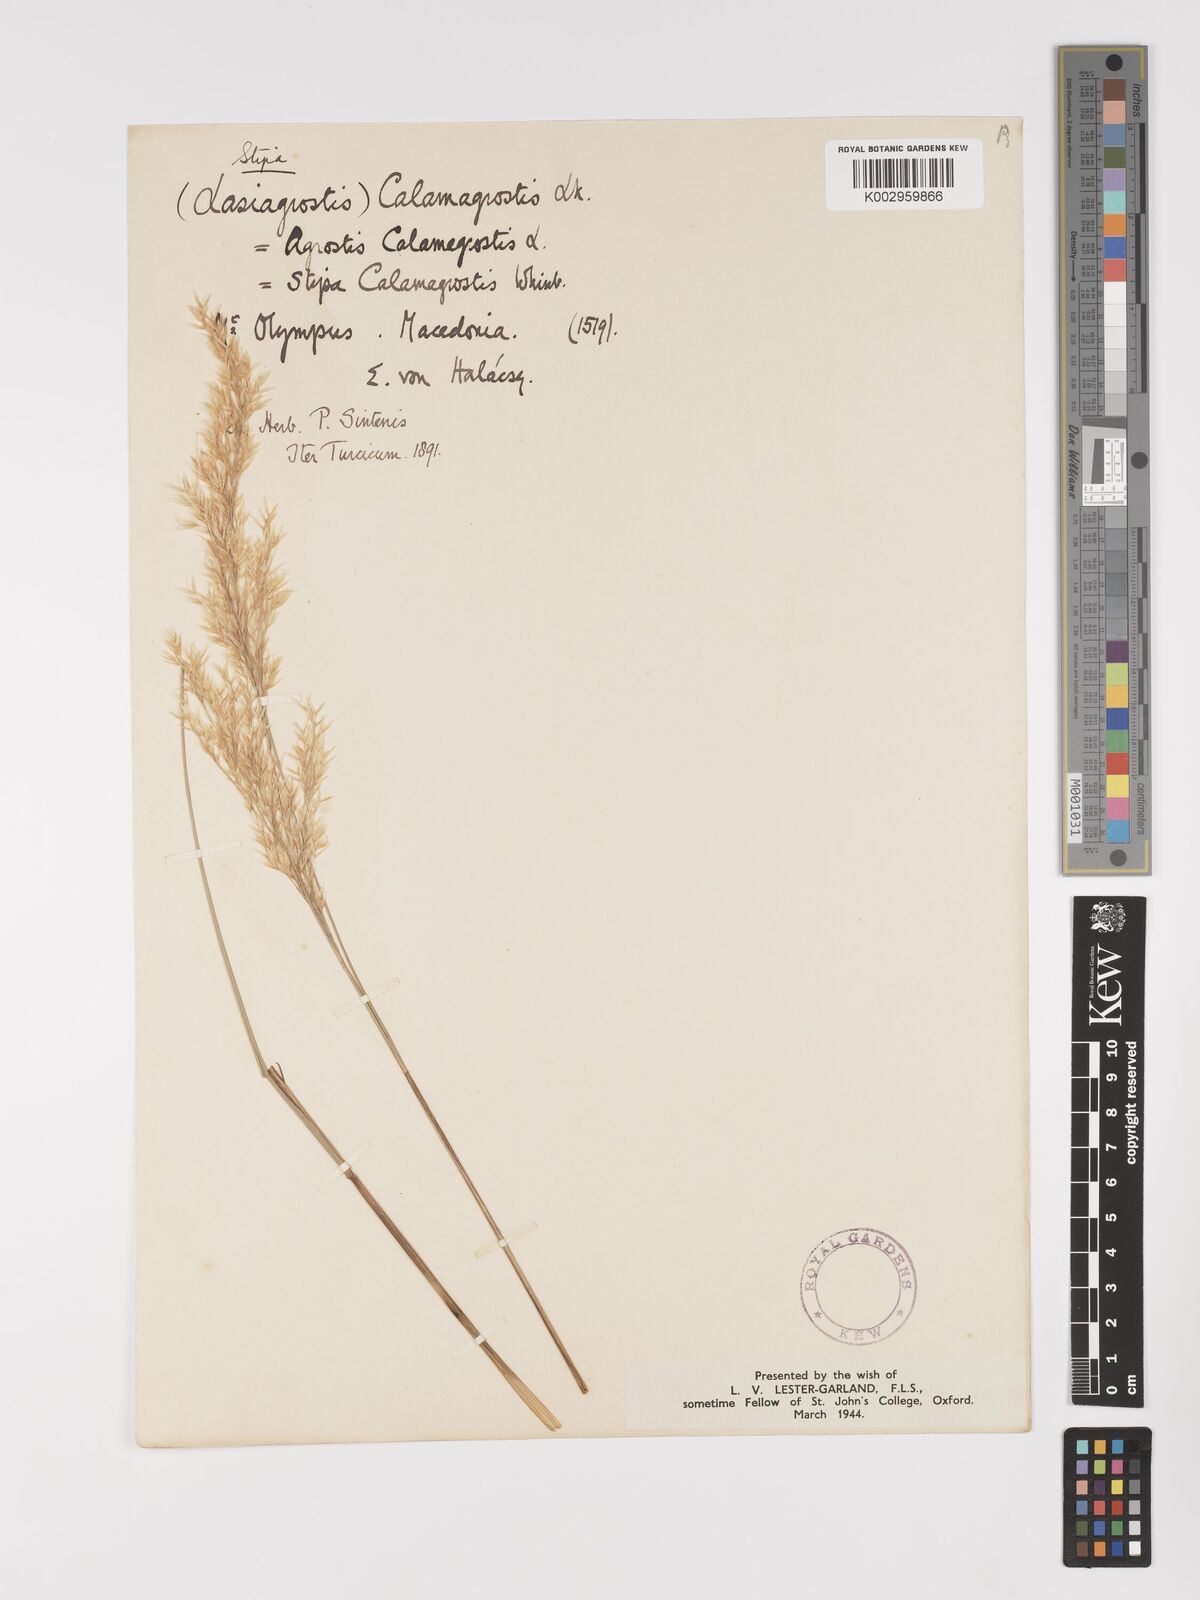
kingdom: Plantae
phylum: Tracheophyta
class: Liliopsida
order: Poales
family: Poaceae
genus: Achnatherum
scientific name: Achnatherum calamagrostis
